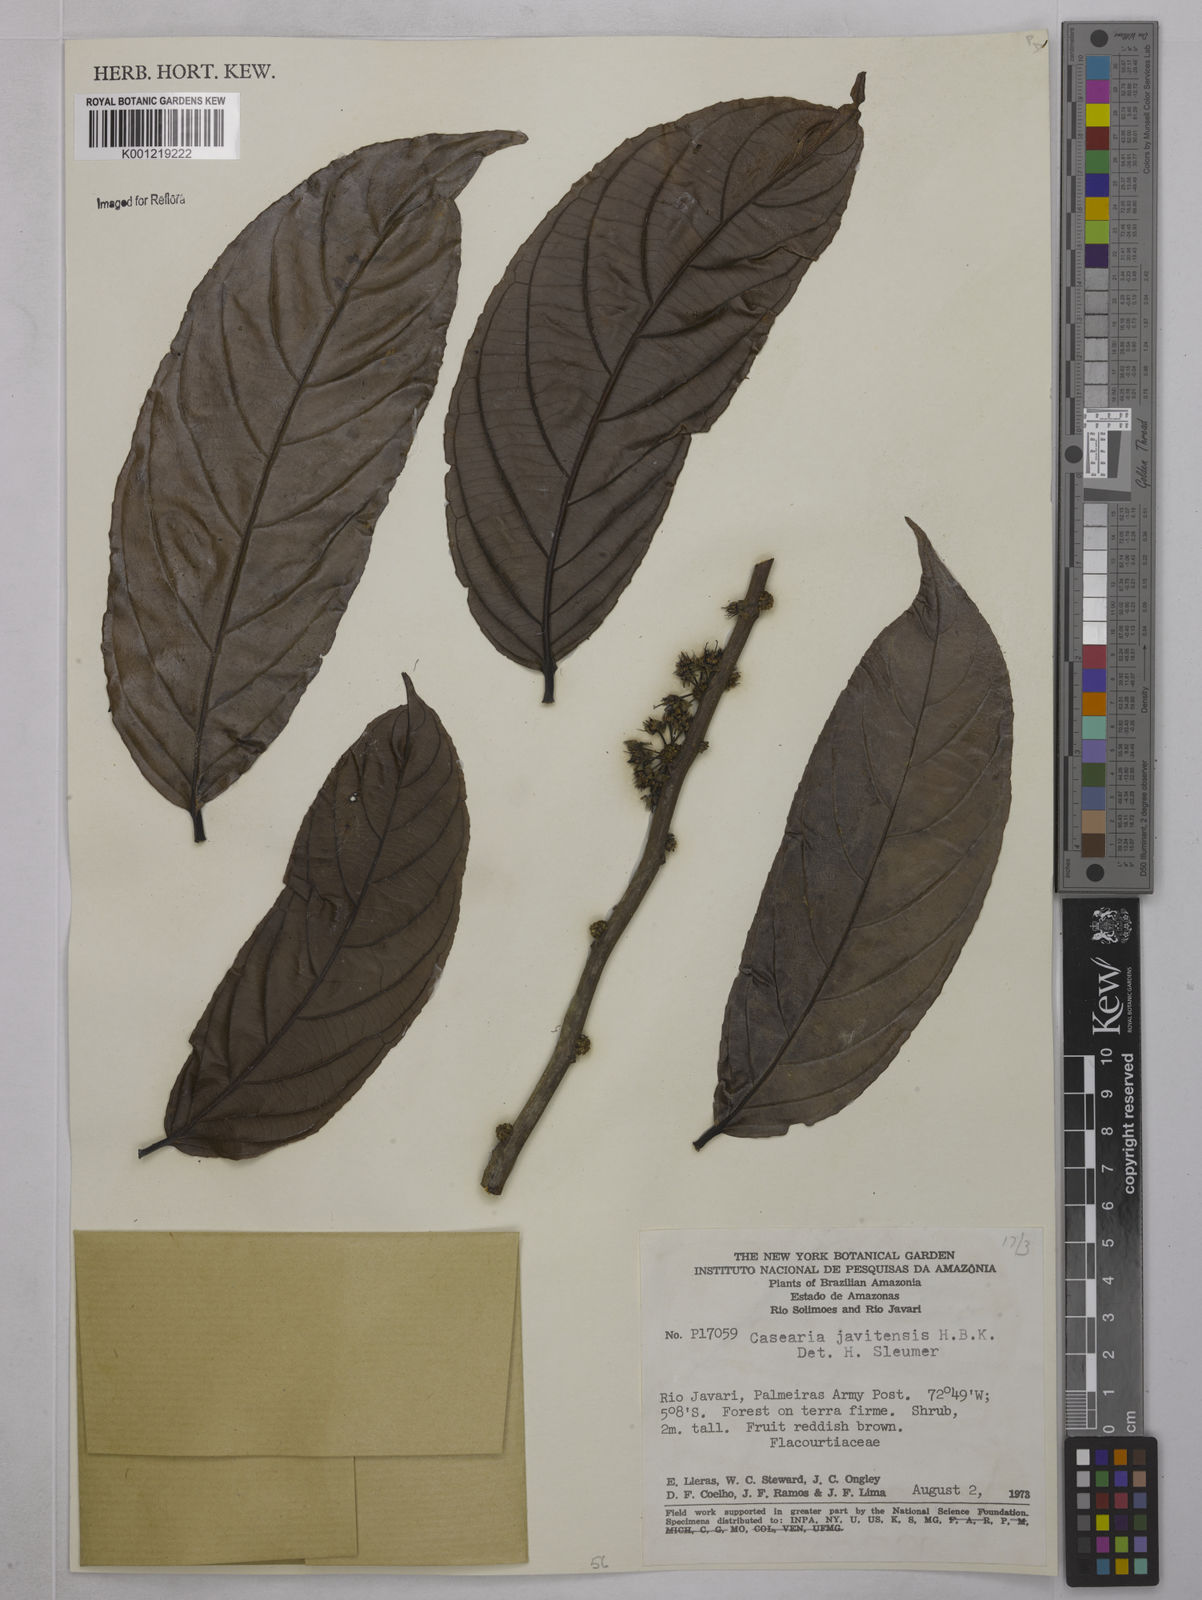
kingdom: Plantae
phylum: Tracheophyta
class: Magnoliopsida
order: Malpighiales
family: Salicaceae
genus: Piparea
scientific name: Piparea multiflora
